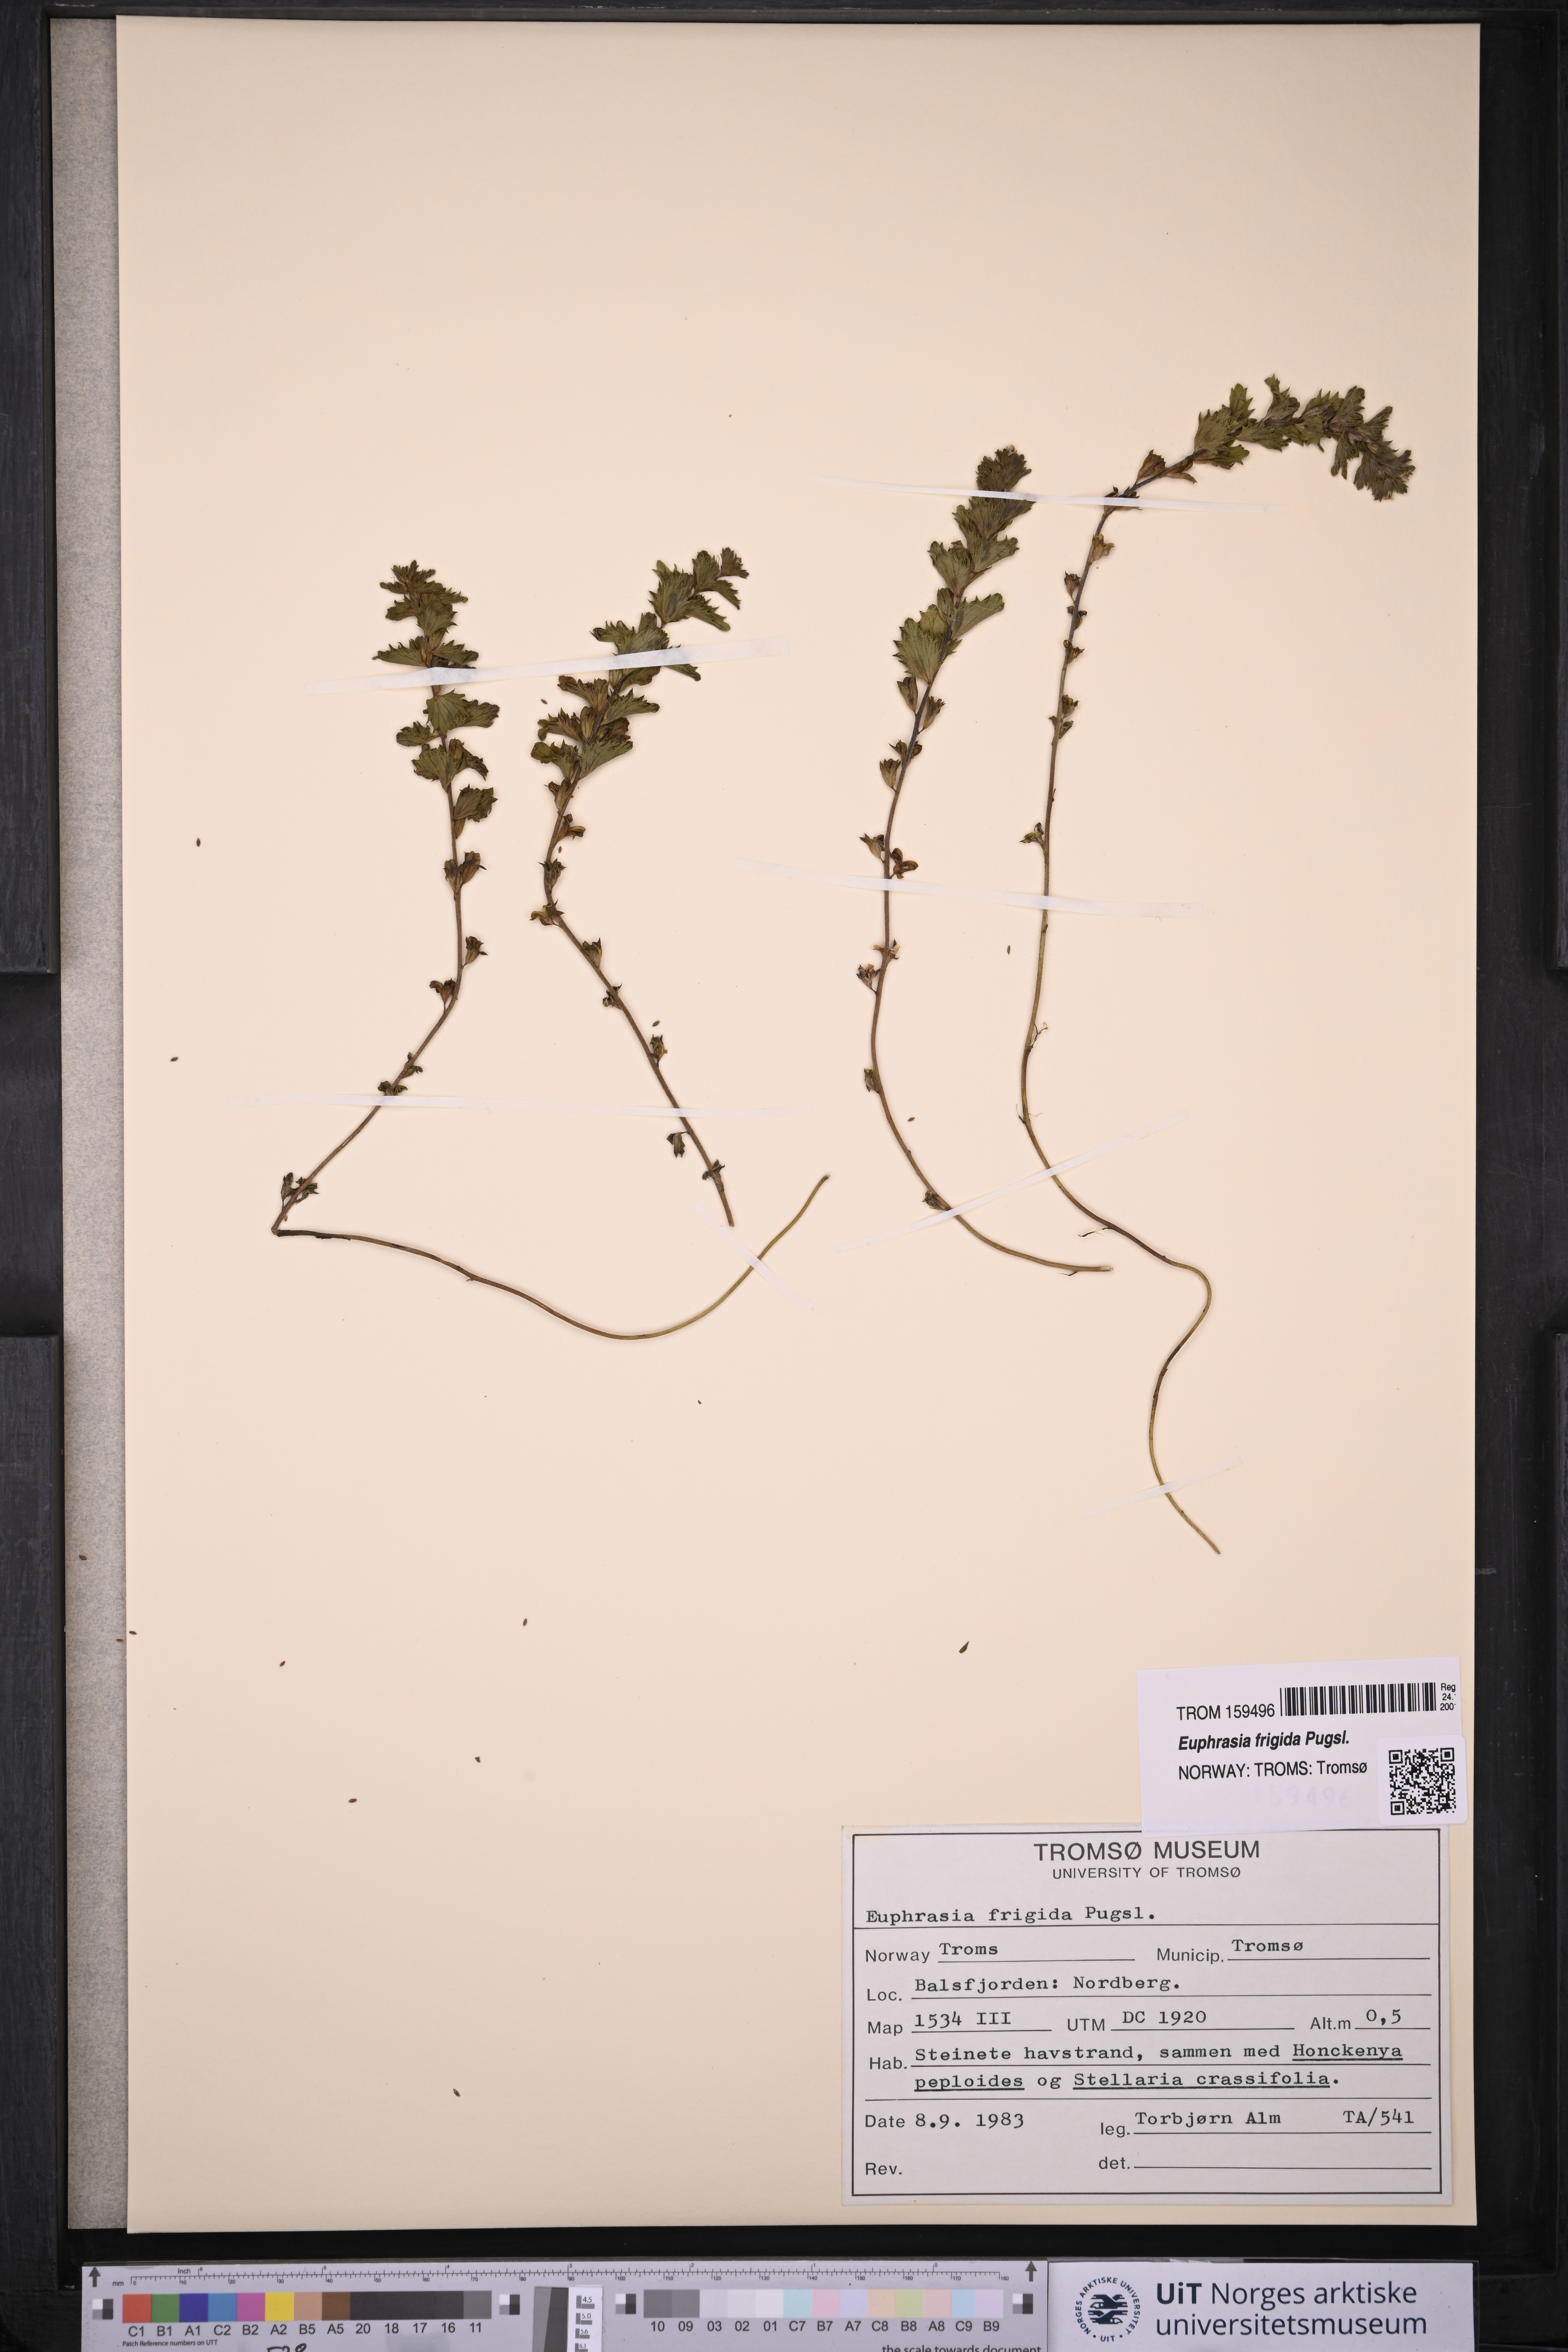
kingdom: Plantae
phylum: Tracheophyta
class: Magnoliopsida
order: Lamiales
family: Orobanchaceae
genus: Euphrasia
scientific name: Euphrasia frigida
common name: An eyebright
